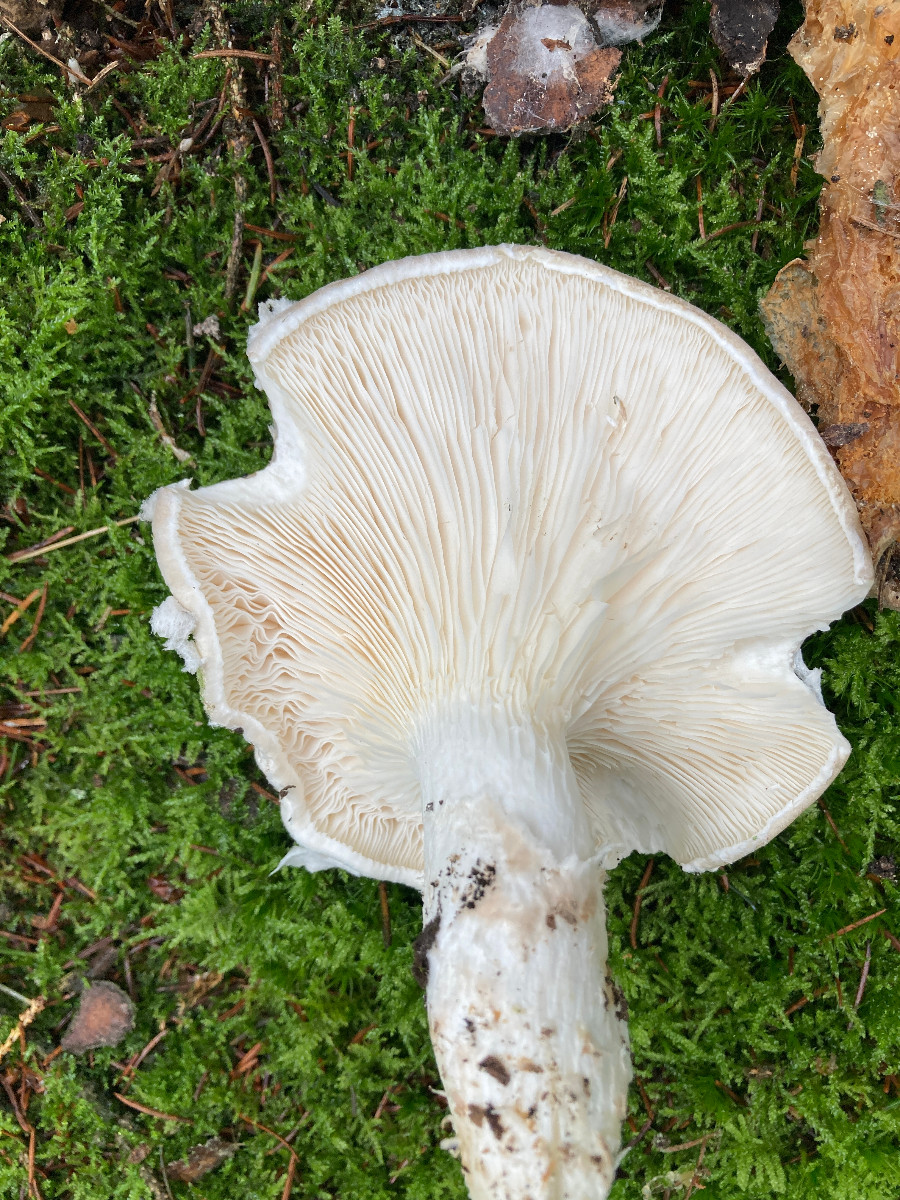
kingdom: Fungi
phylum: Basidiomycota
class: Agaricomycetes
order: Agaricales
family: Pleurotaceae
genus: Pleurotus
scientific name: Pleurotus dryinus
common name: korkagtig østershat
